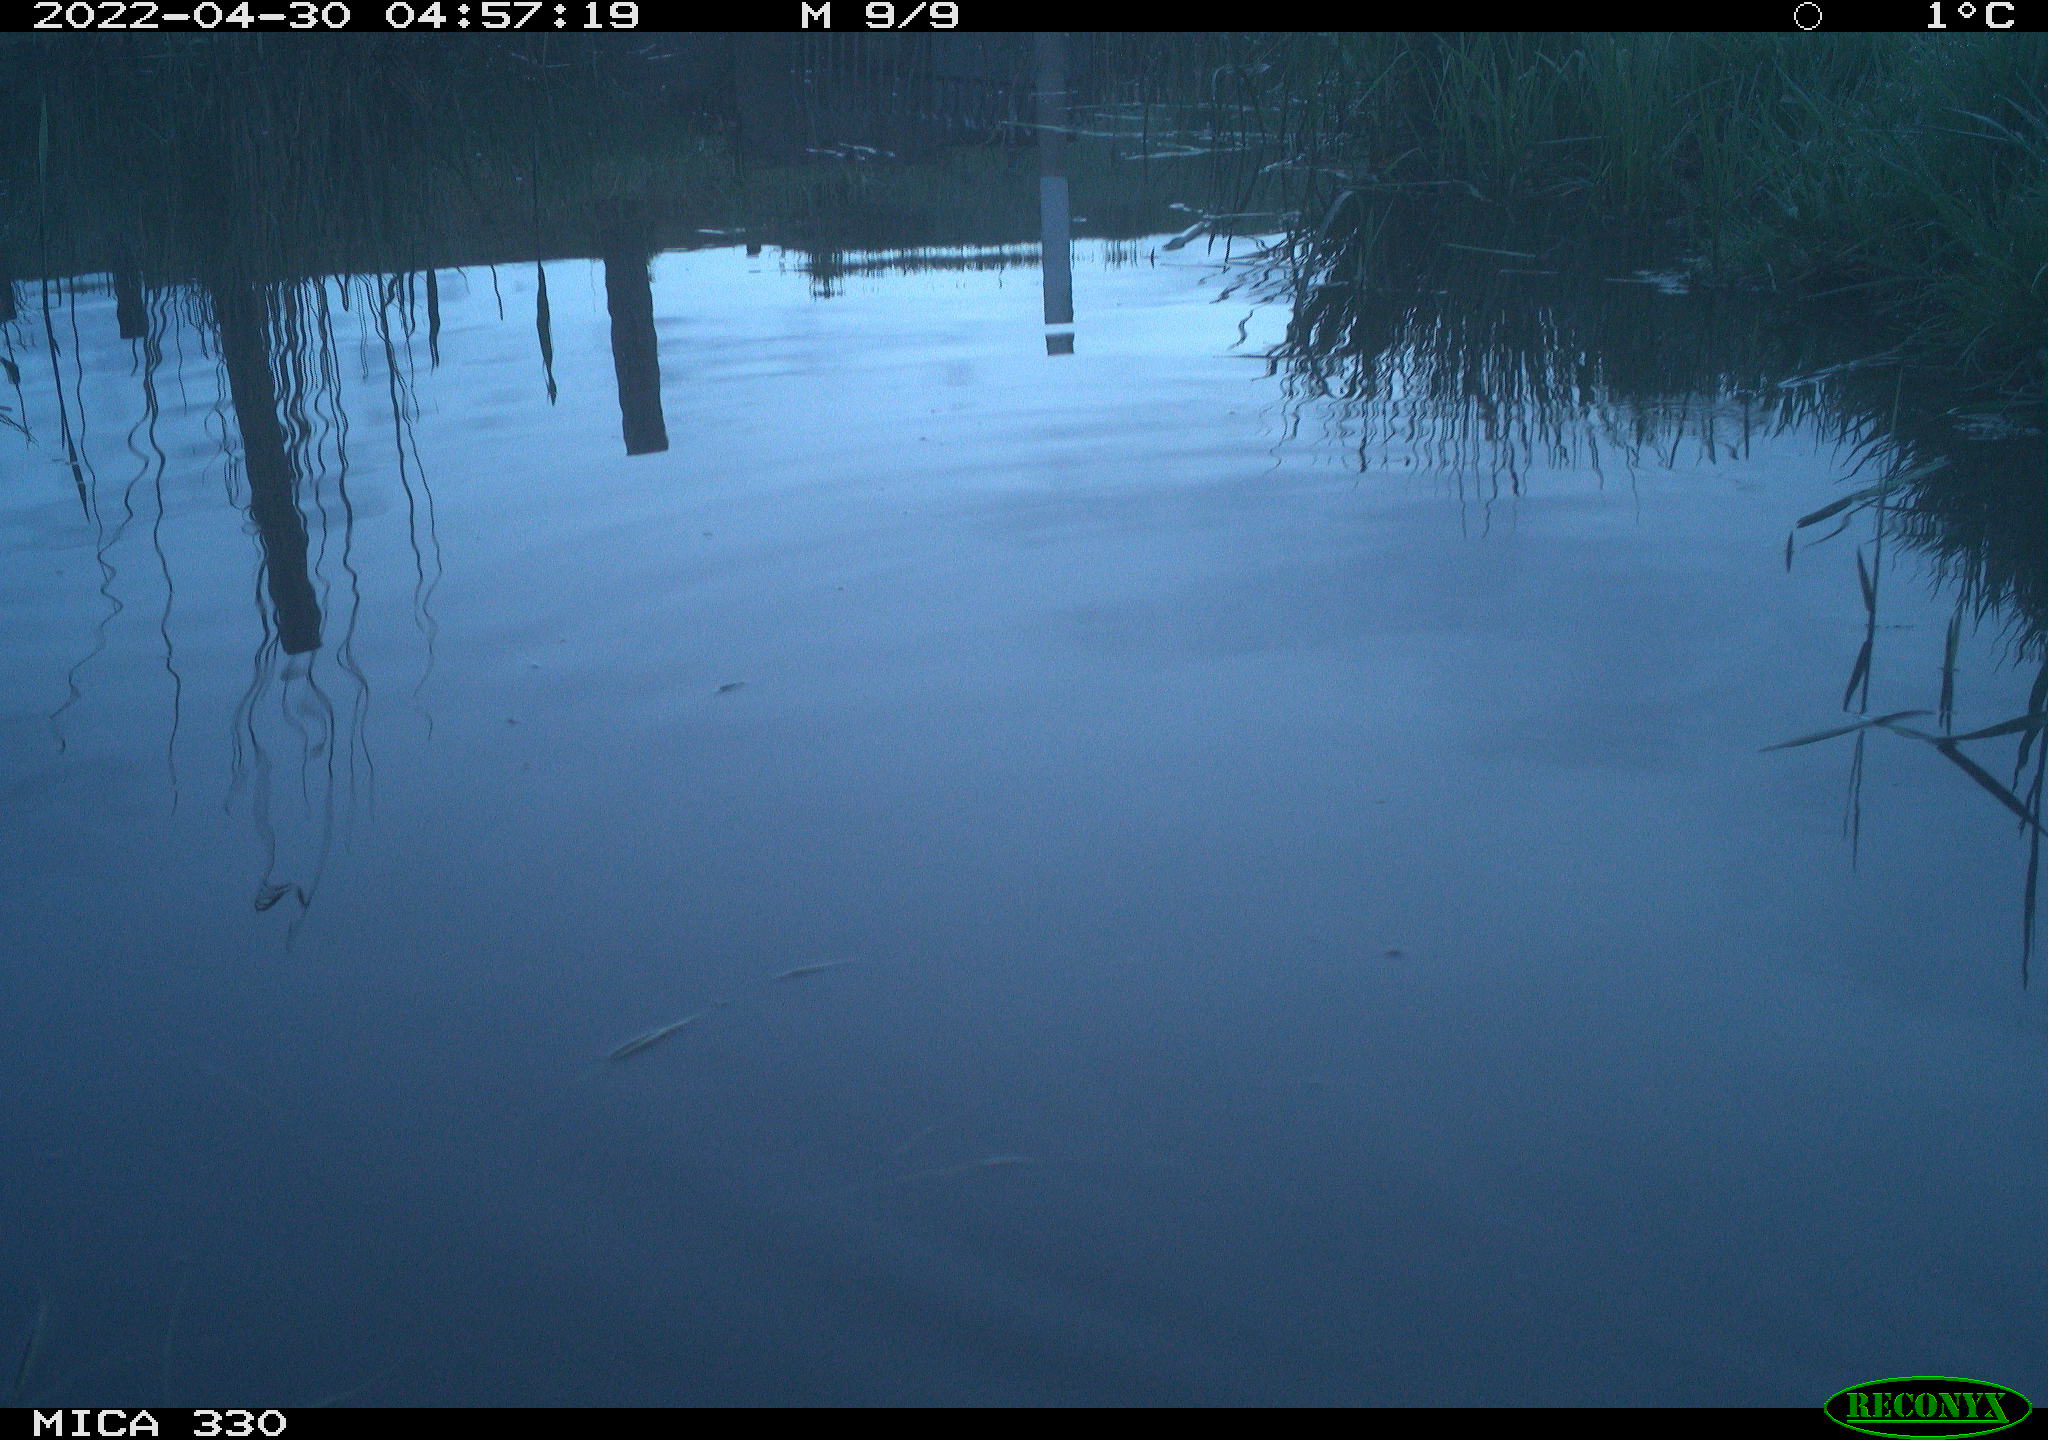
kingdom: Animalia
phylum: Chordata
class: Aves
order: Gruiformes
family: Rallidae
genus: Gallinula
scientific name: Gallinula chloropus
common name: Common moorhen
